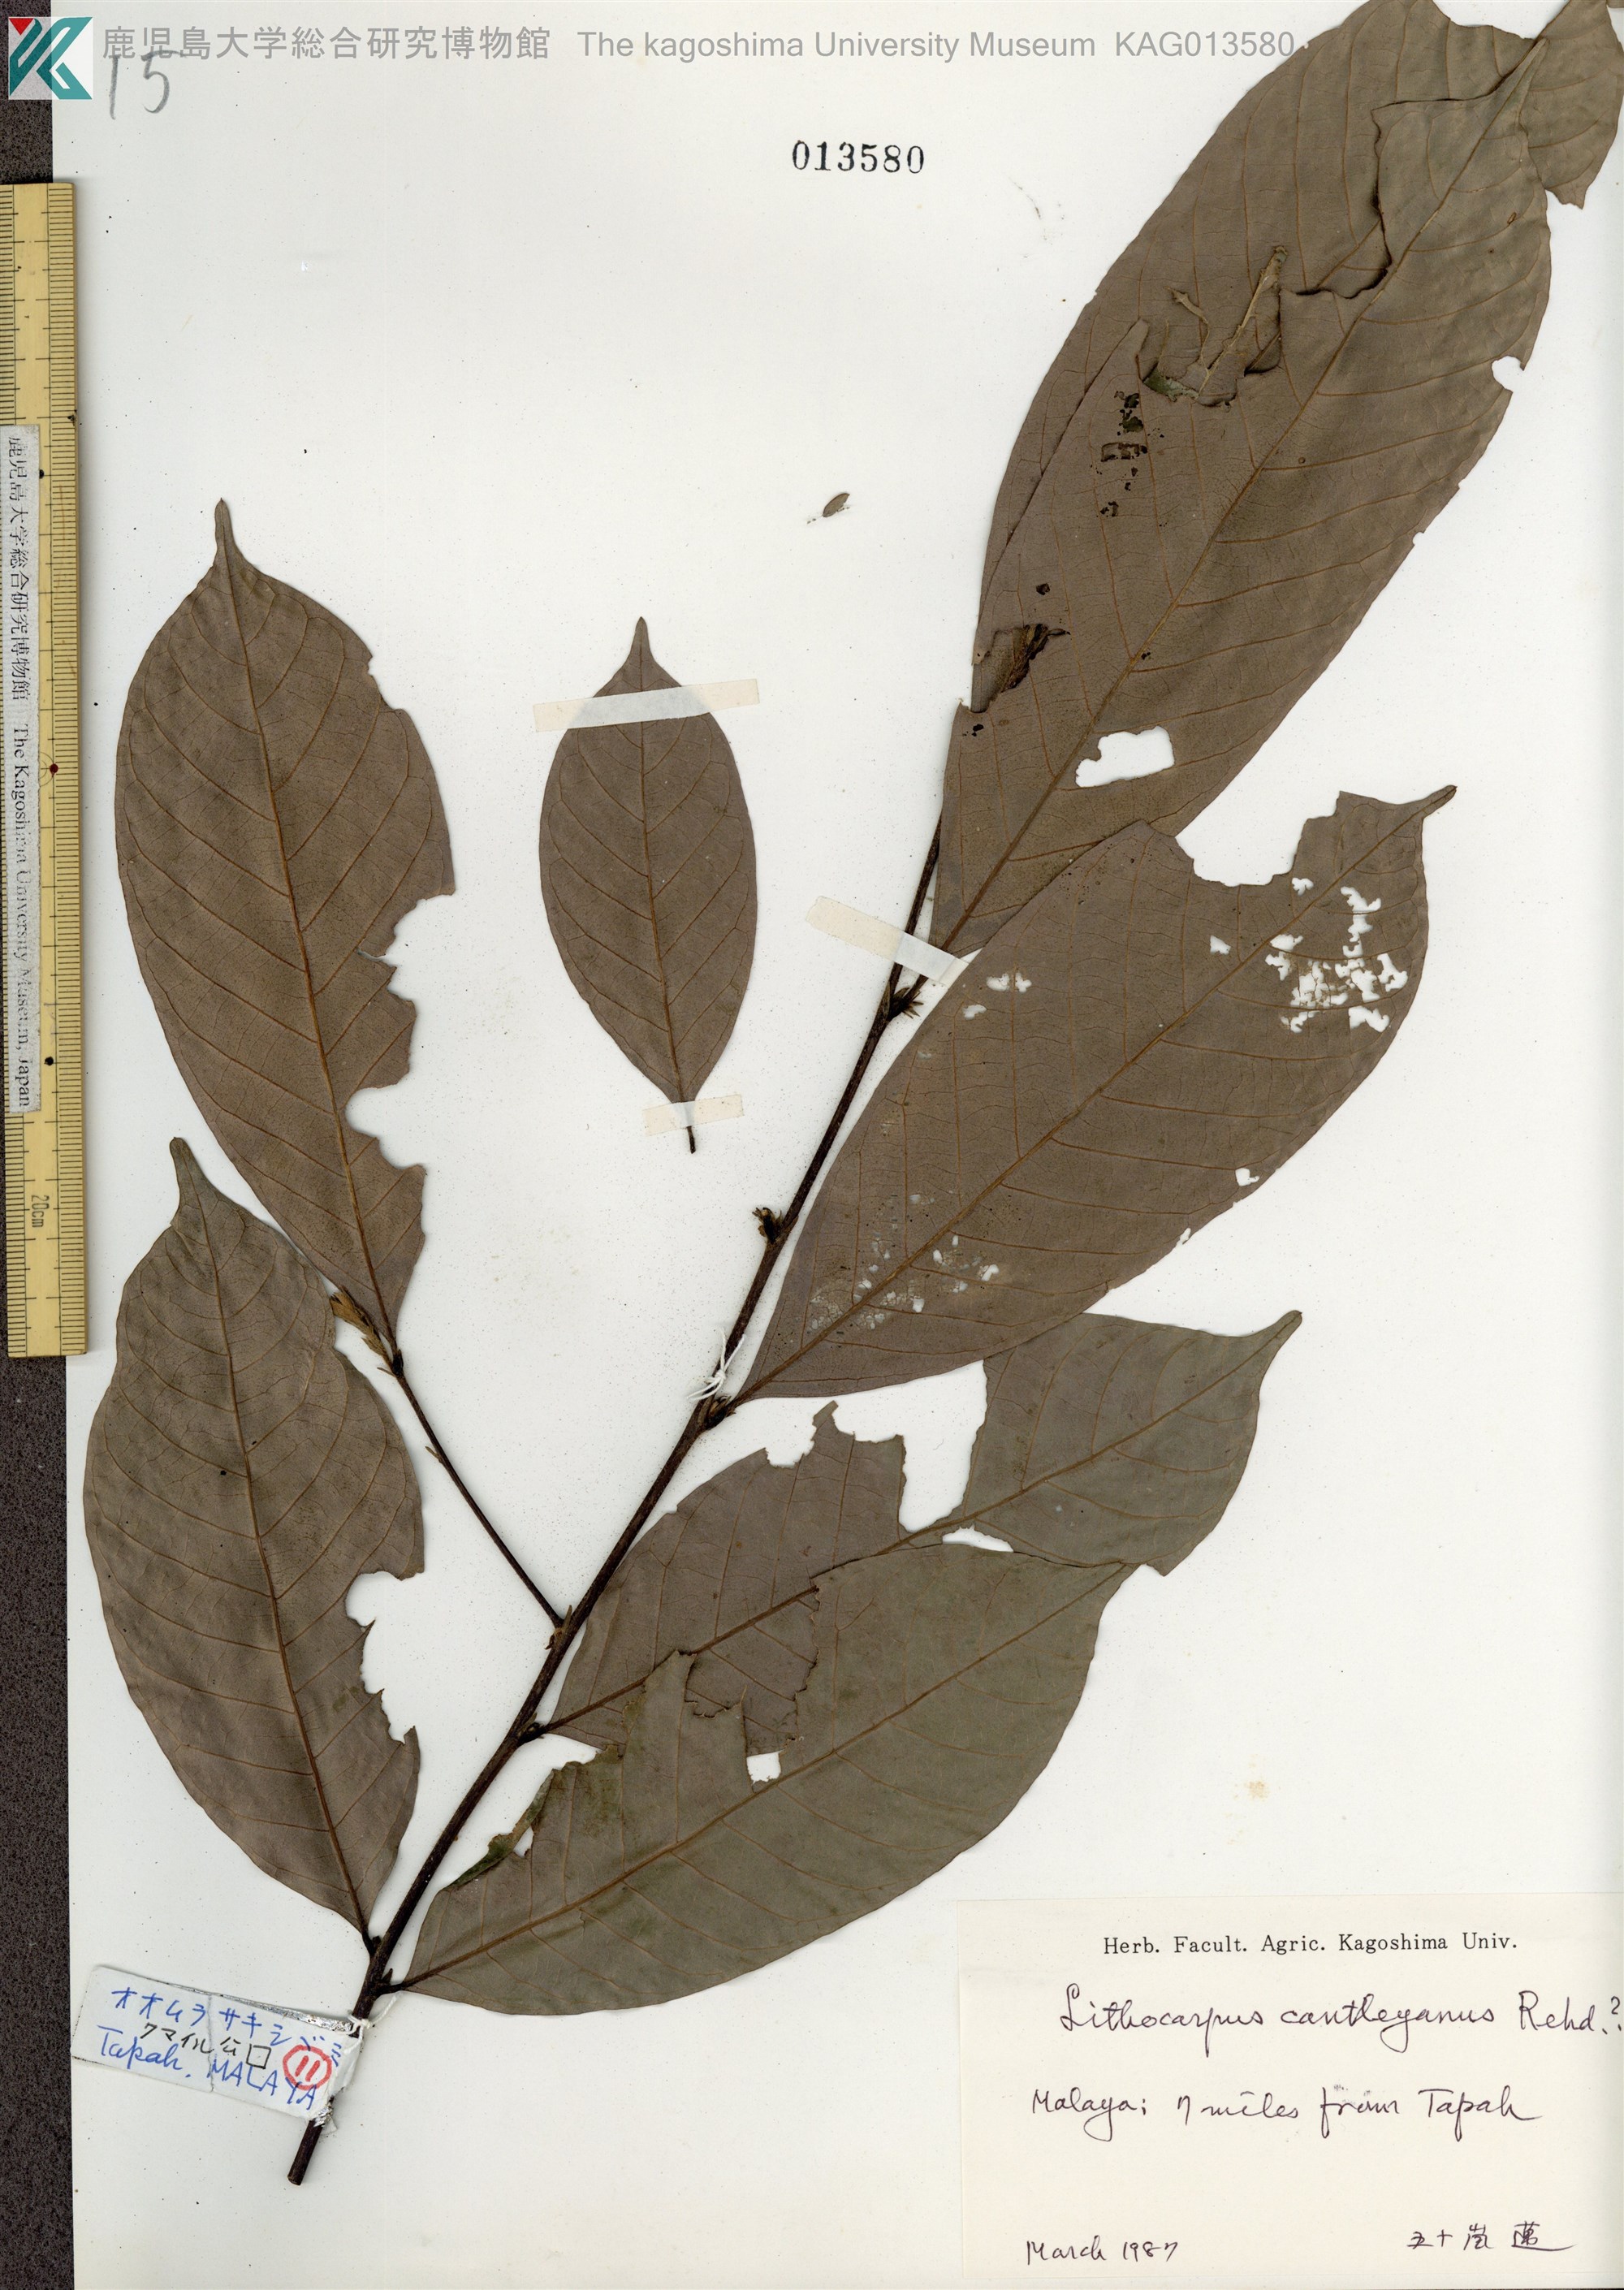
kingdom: Plantae
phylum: Tracheophyta
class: Magnoliopsida
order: Fagales
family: Fagaceae
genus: Lithocarpus
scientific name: Lithocarpus cantleyanus
